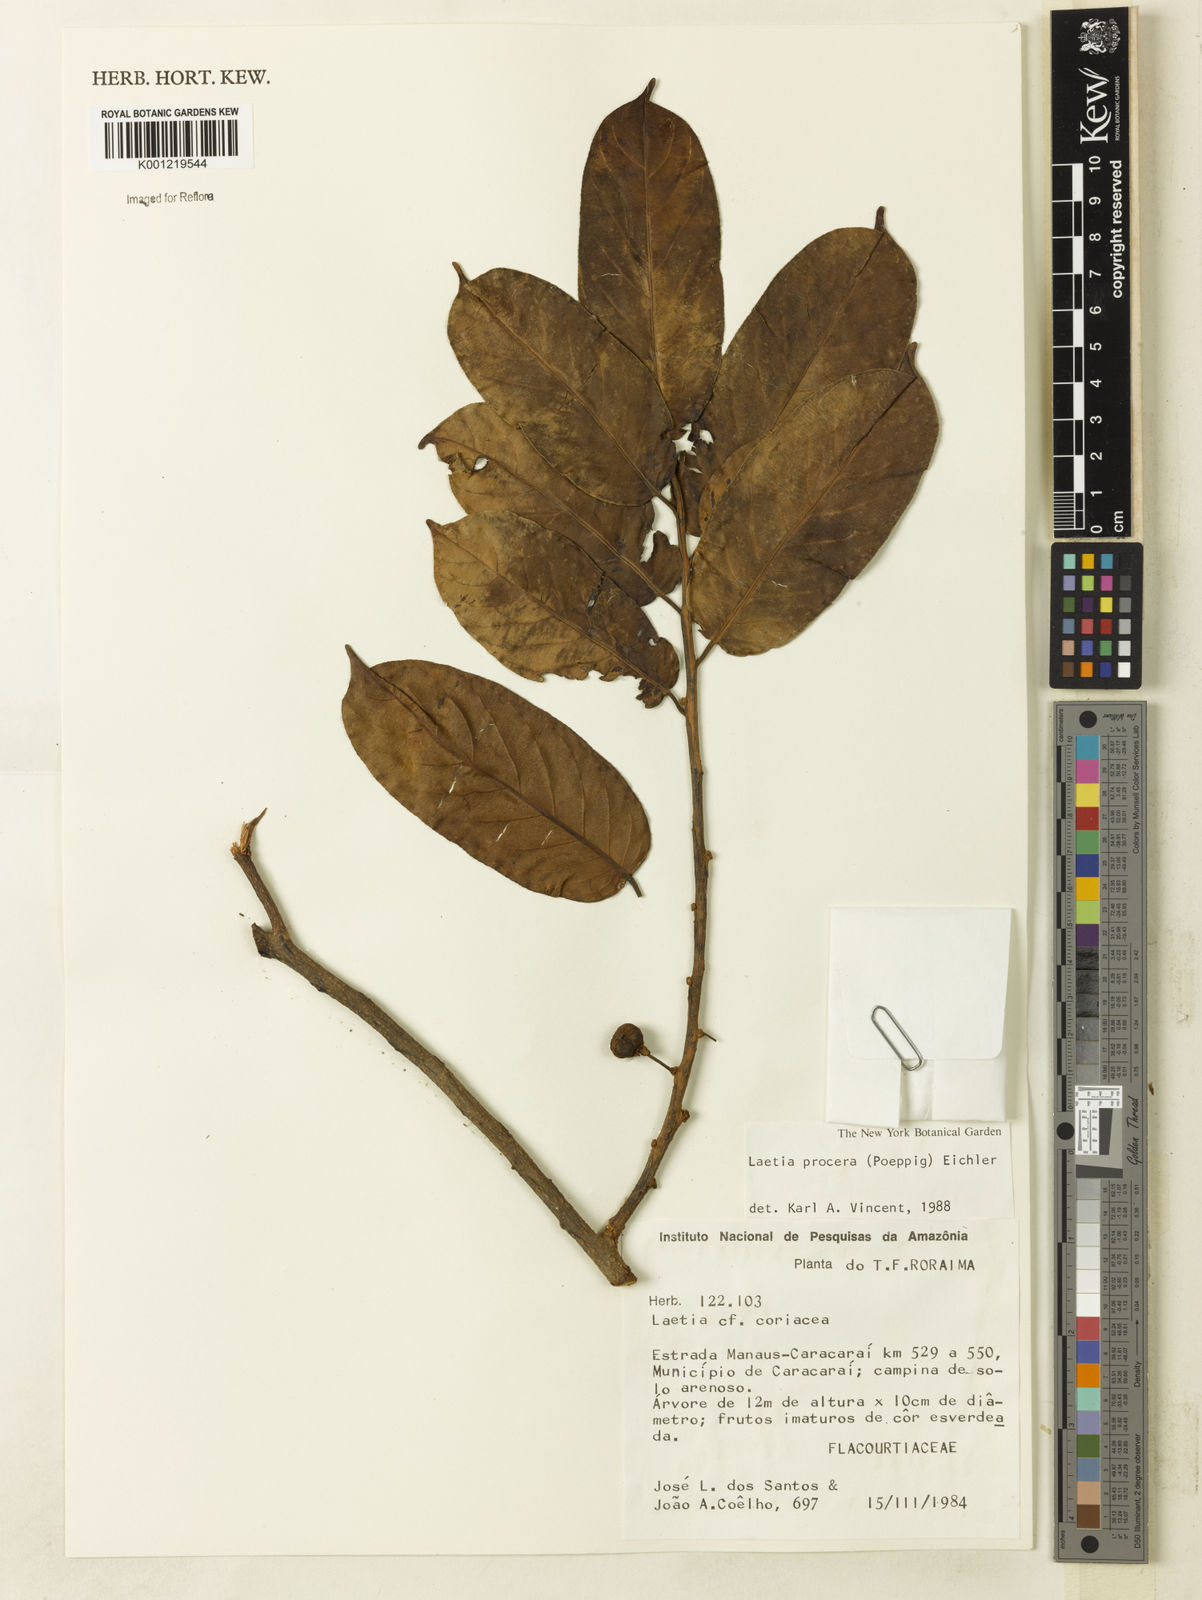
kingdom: Plantae
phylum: Tracheophyta
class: Magnoliopsida
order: Malpighiales
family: Salicaceae
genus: Casearia
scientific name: Casearia bicolor
